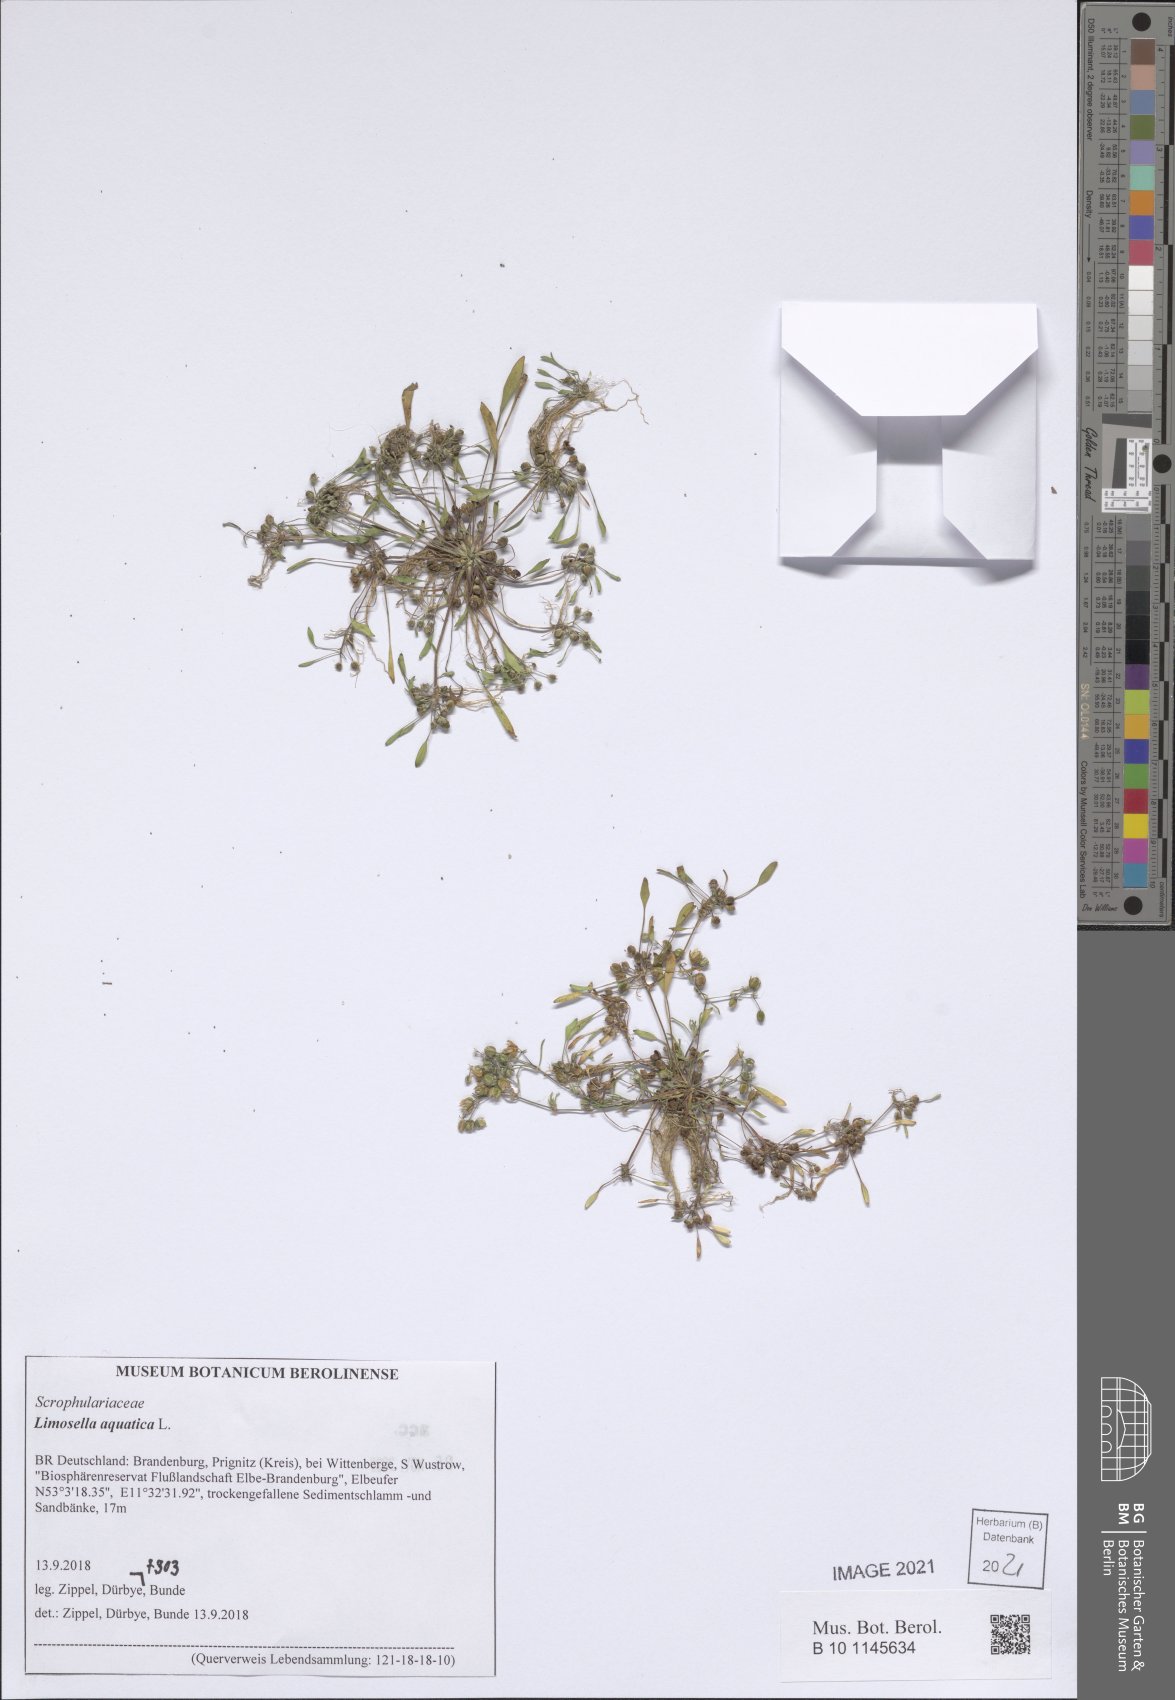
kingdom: Plantae
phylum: Tracheophyta
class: Magnoliopsida
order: Lamiales
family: Scrophulariaceae
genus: Limosella
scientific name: Limosella aquatica
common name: Mudwort
